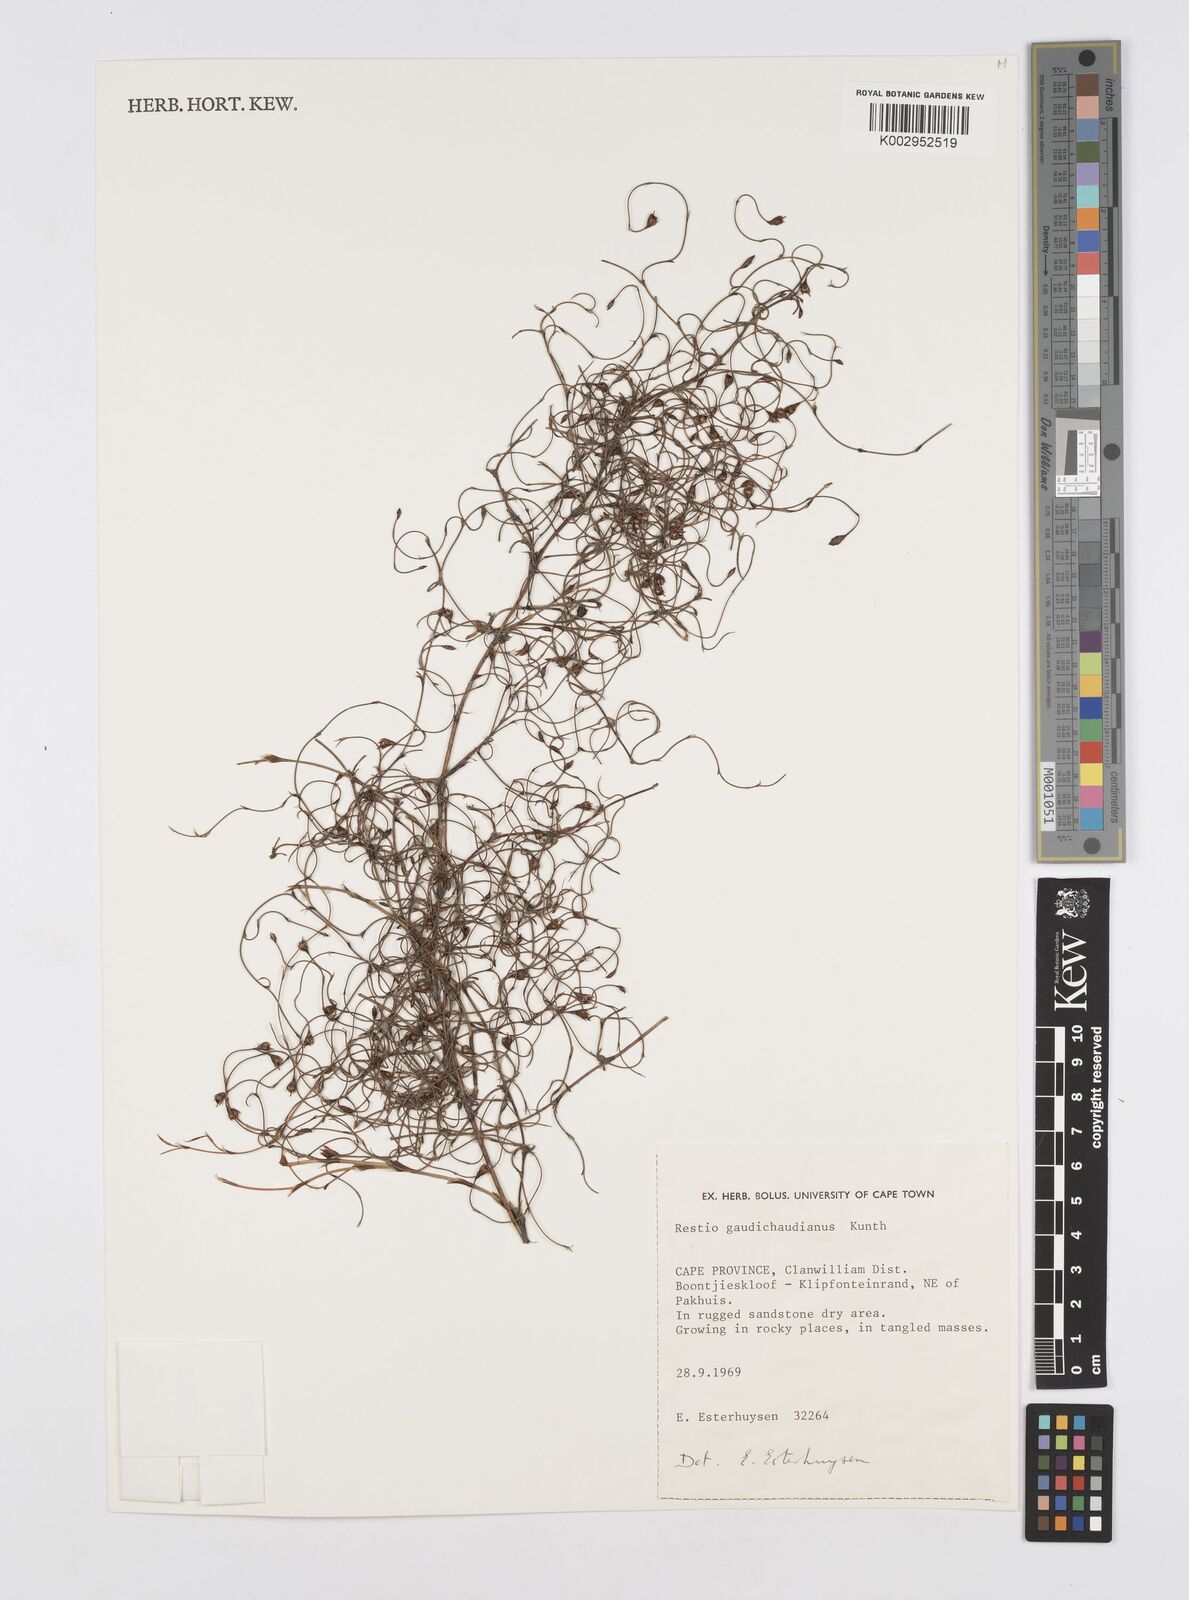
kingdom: Plantae
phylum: Tracheophyta
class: Liliopsida
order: Poales
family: Restionaceae
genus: Restio
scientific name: Restio gaudichaudianus
